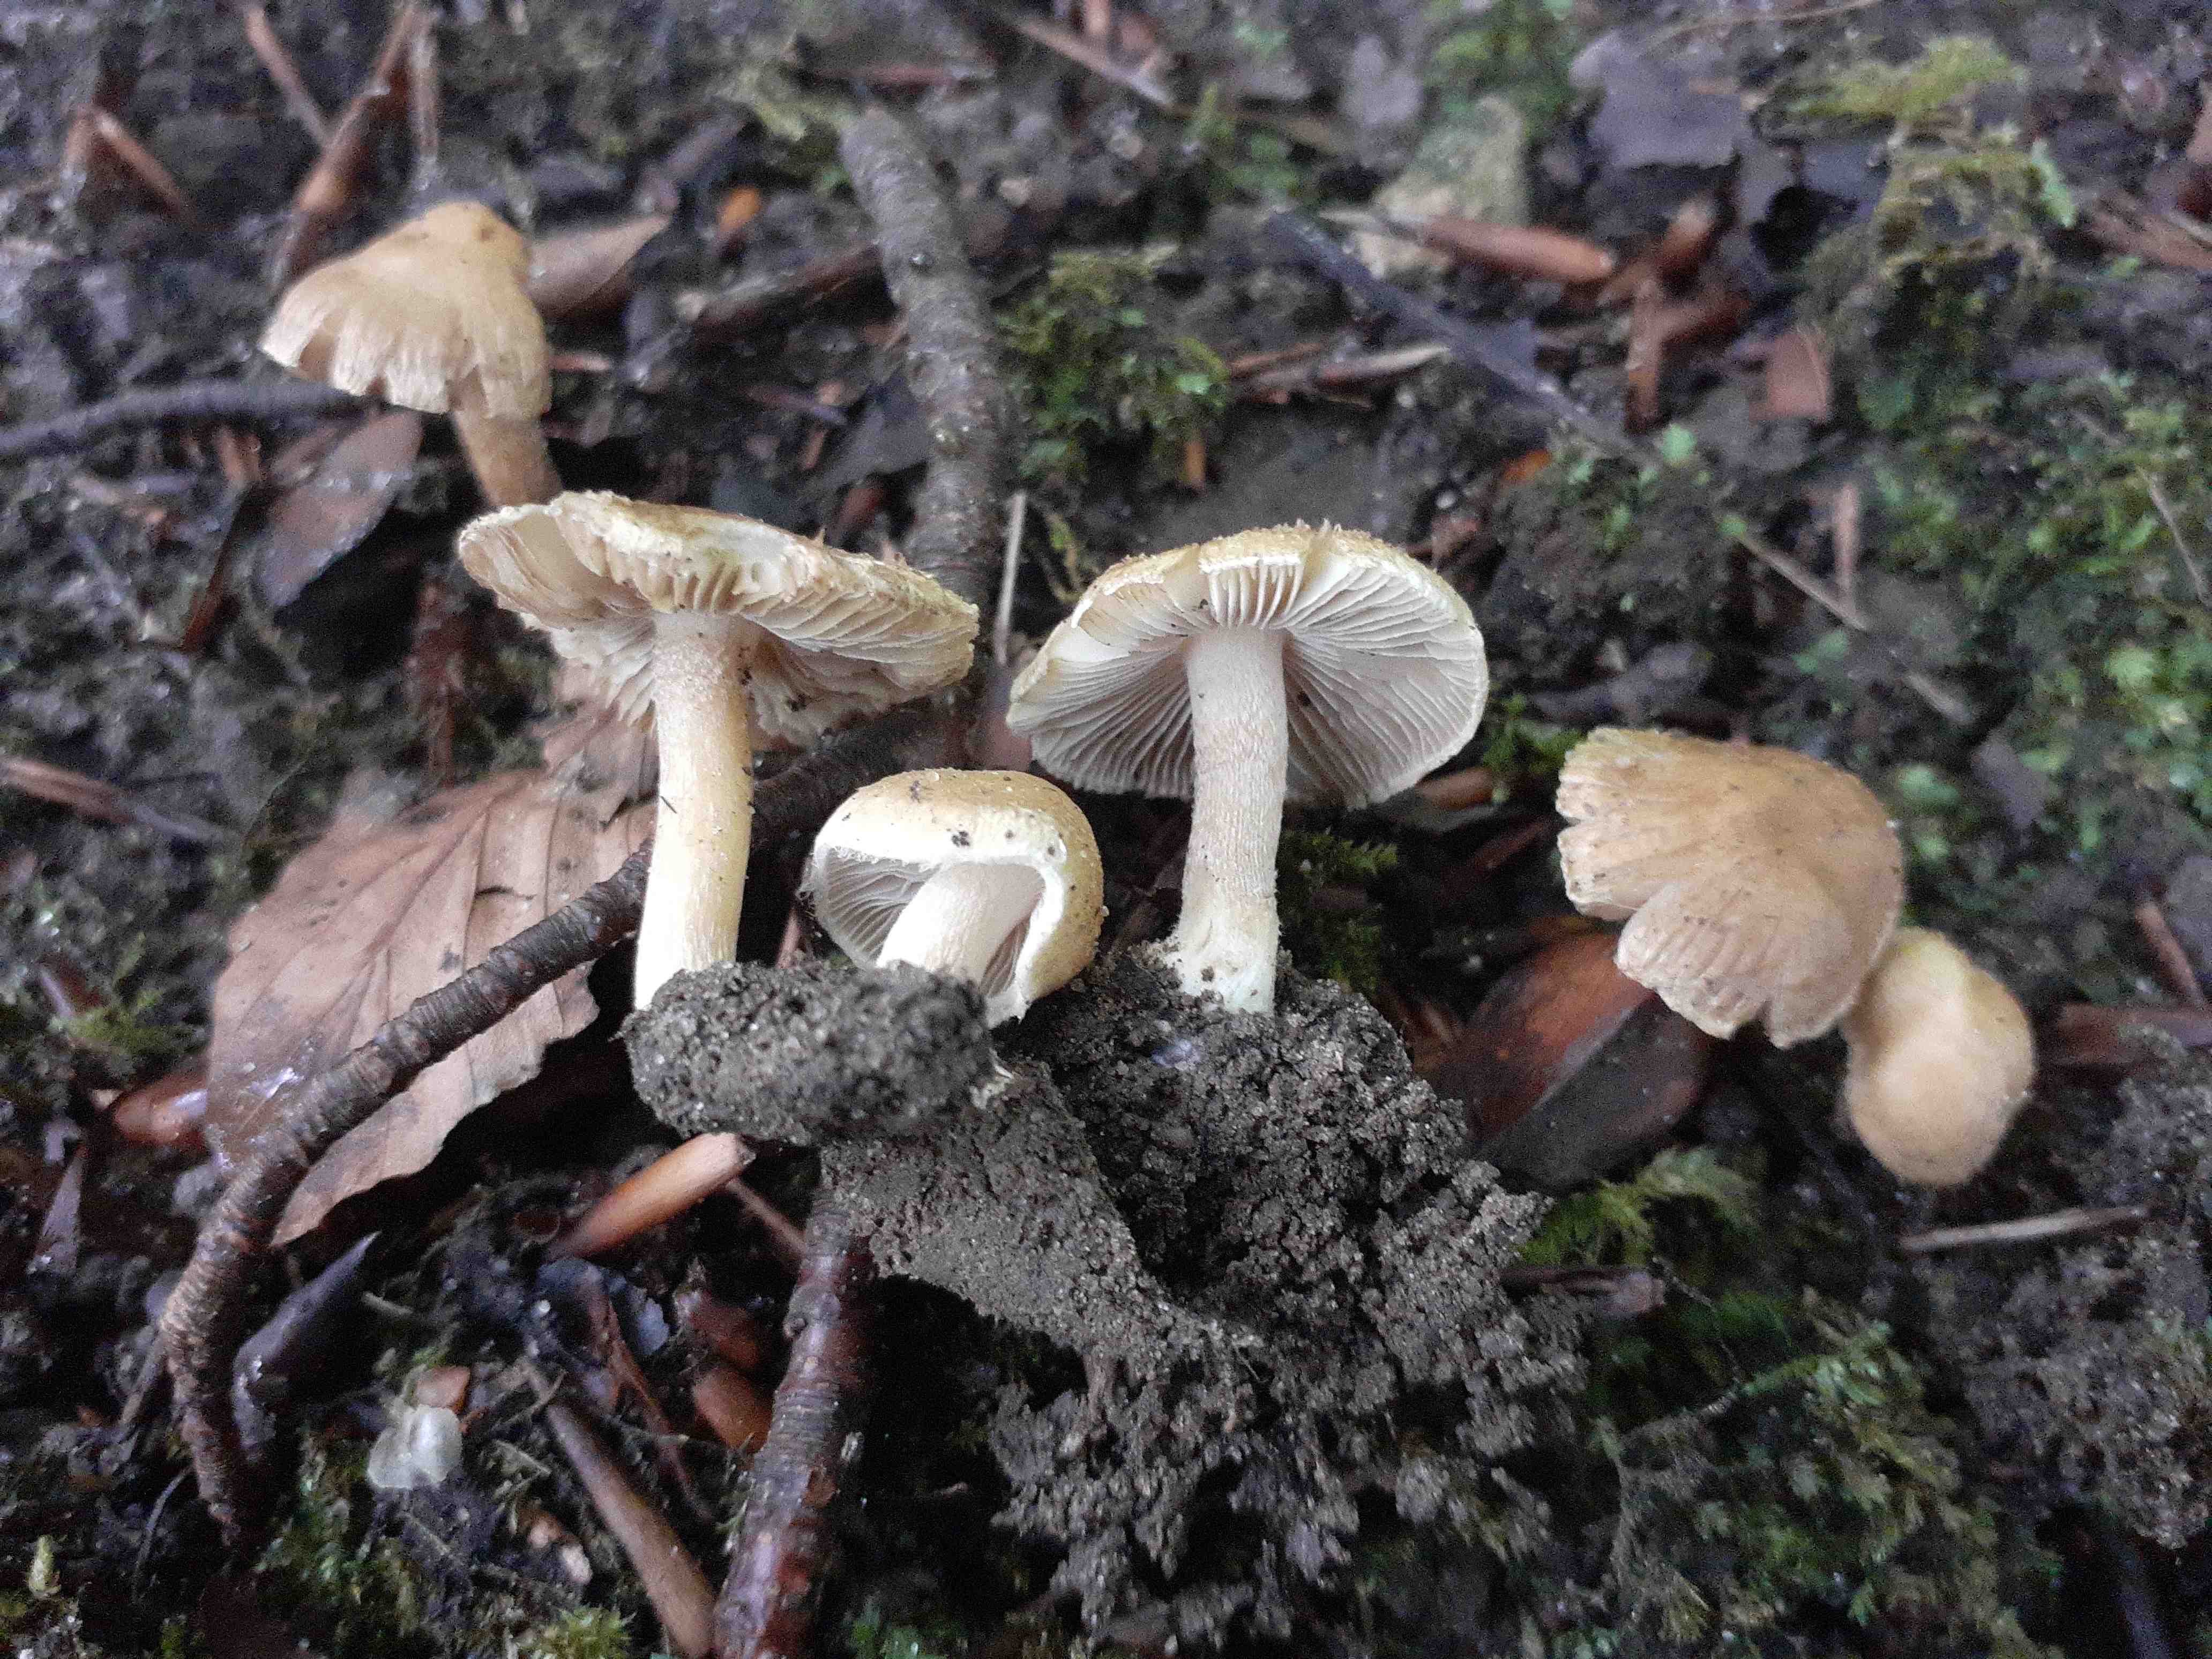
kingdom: Fungi
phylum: Basidiomycota
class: Agaricomycetes
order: Agaricales
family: Inocybaceae
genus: Inocybe
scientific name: Inocybe mystica
